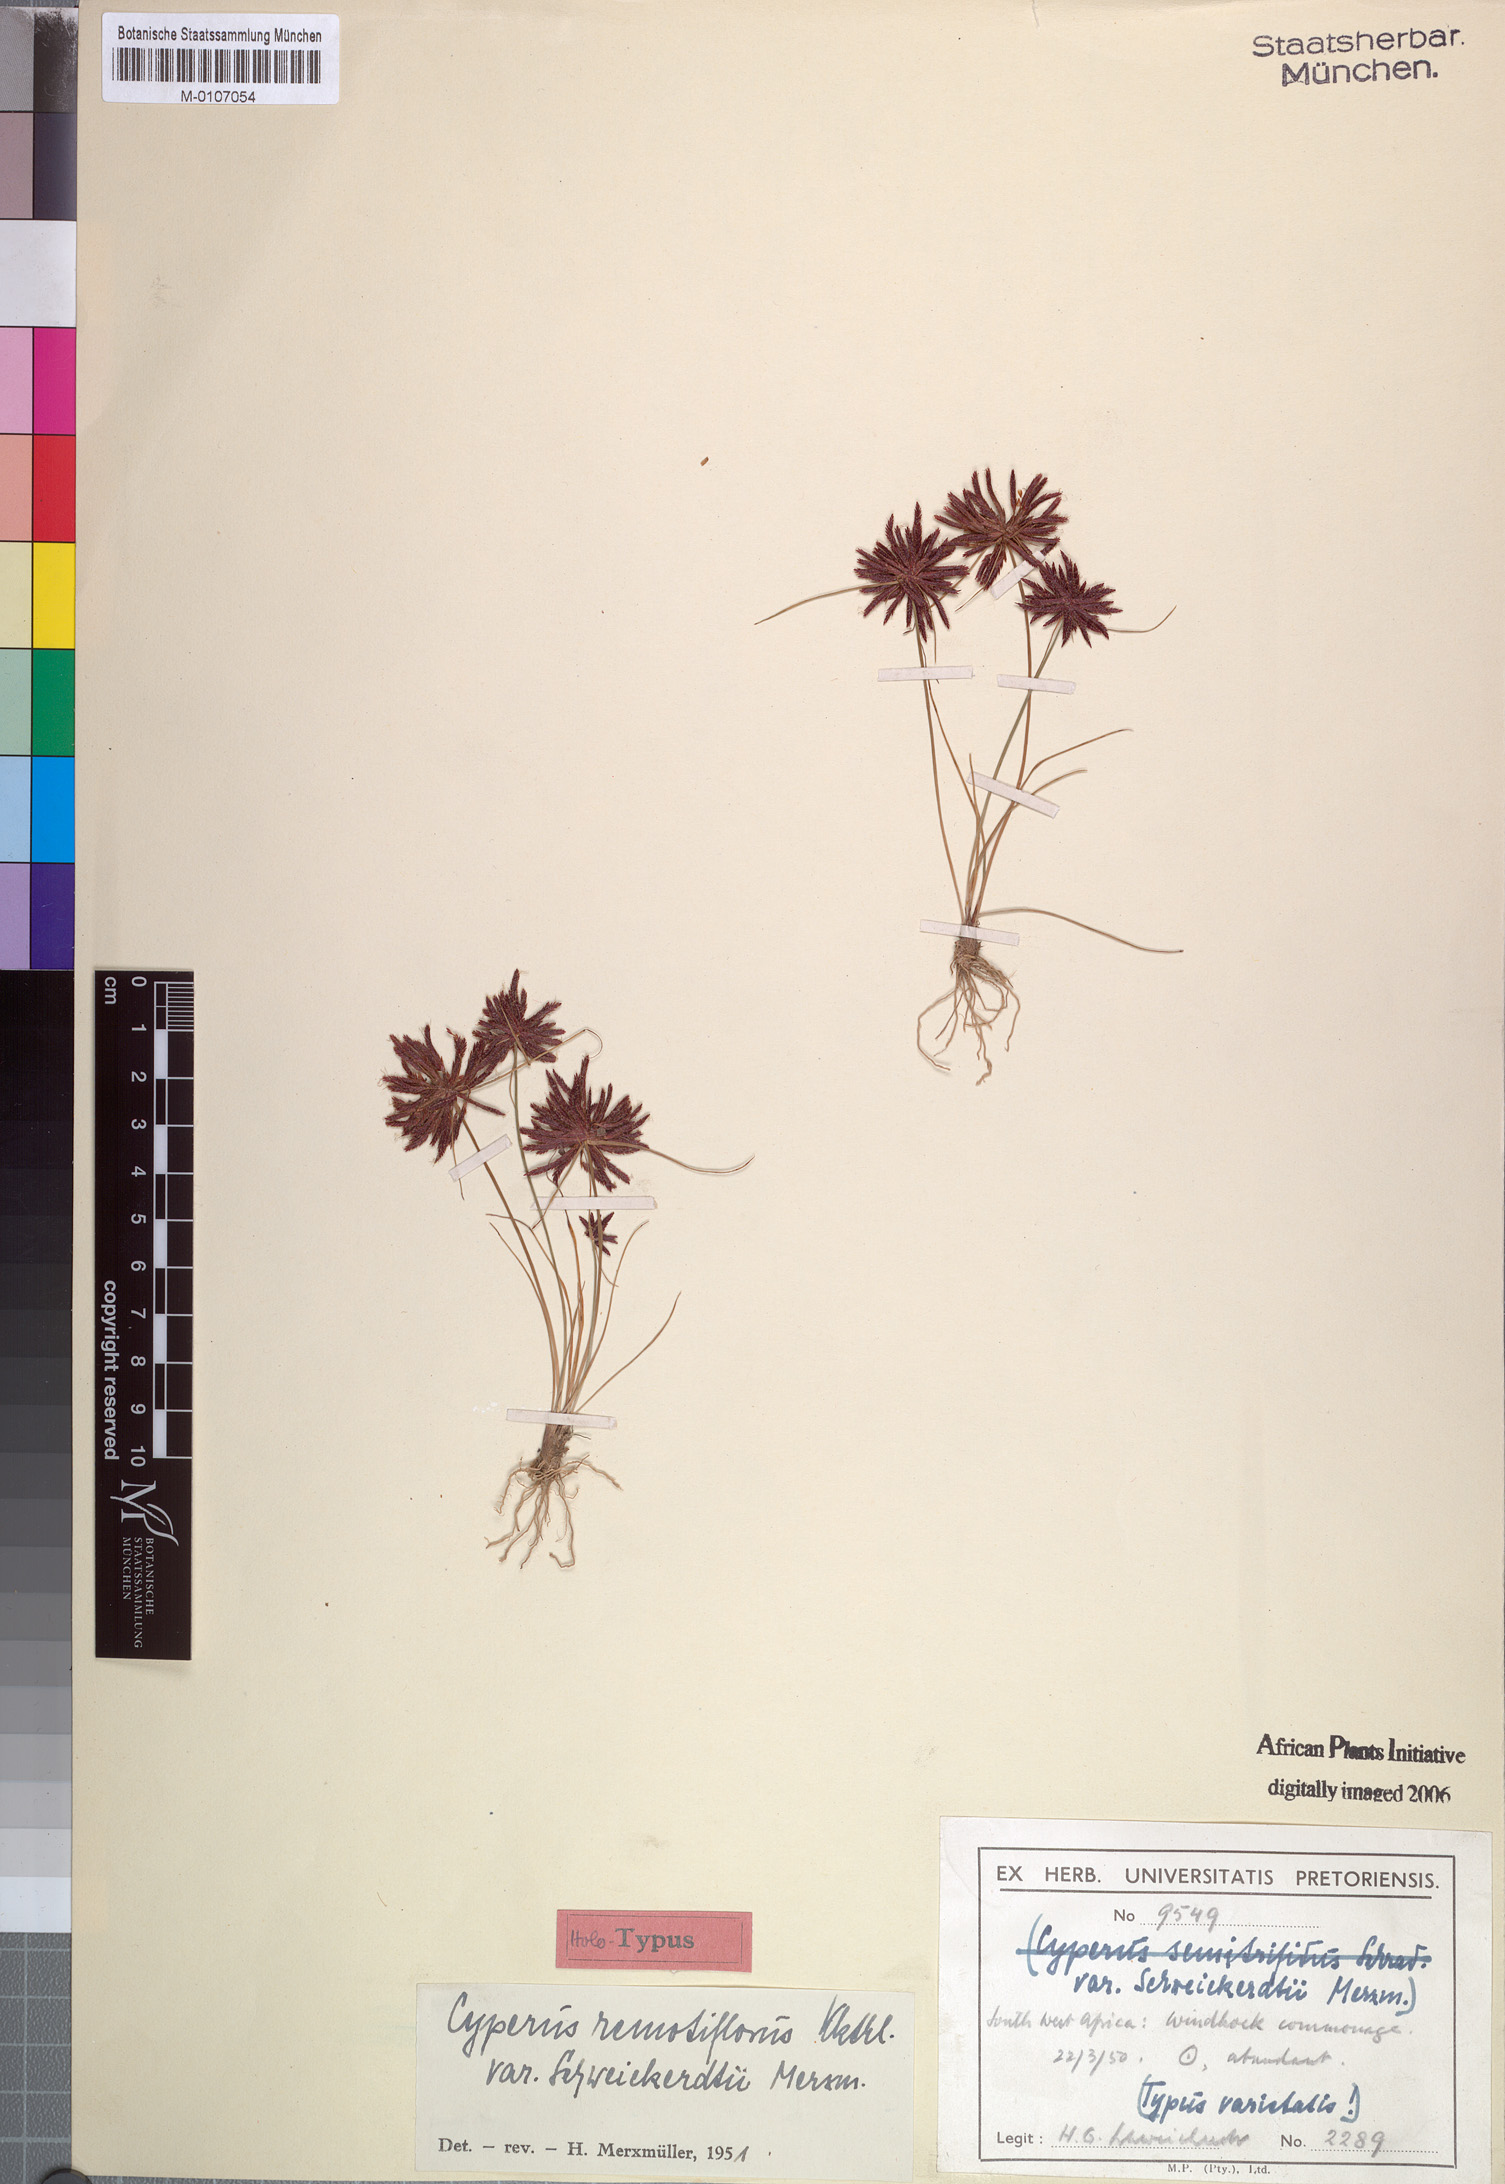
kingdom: Plantae
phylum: Tracheophyta
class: Liliopsida
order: Poales
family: Cyperaceae
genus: Cyperus
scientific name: Cyperus bellus
